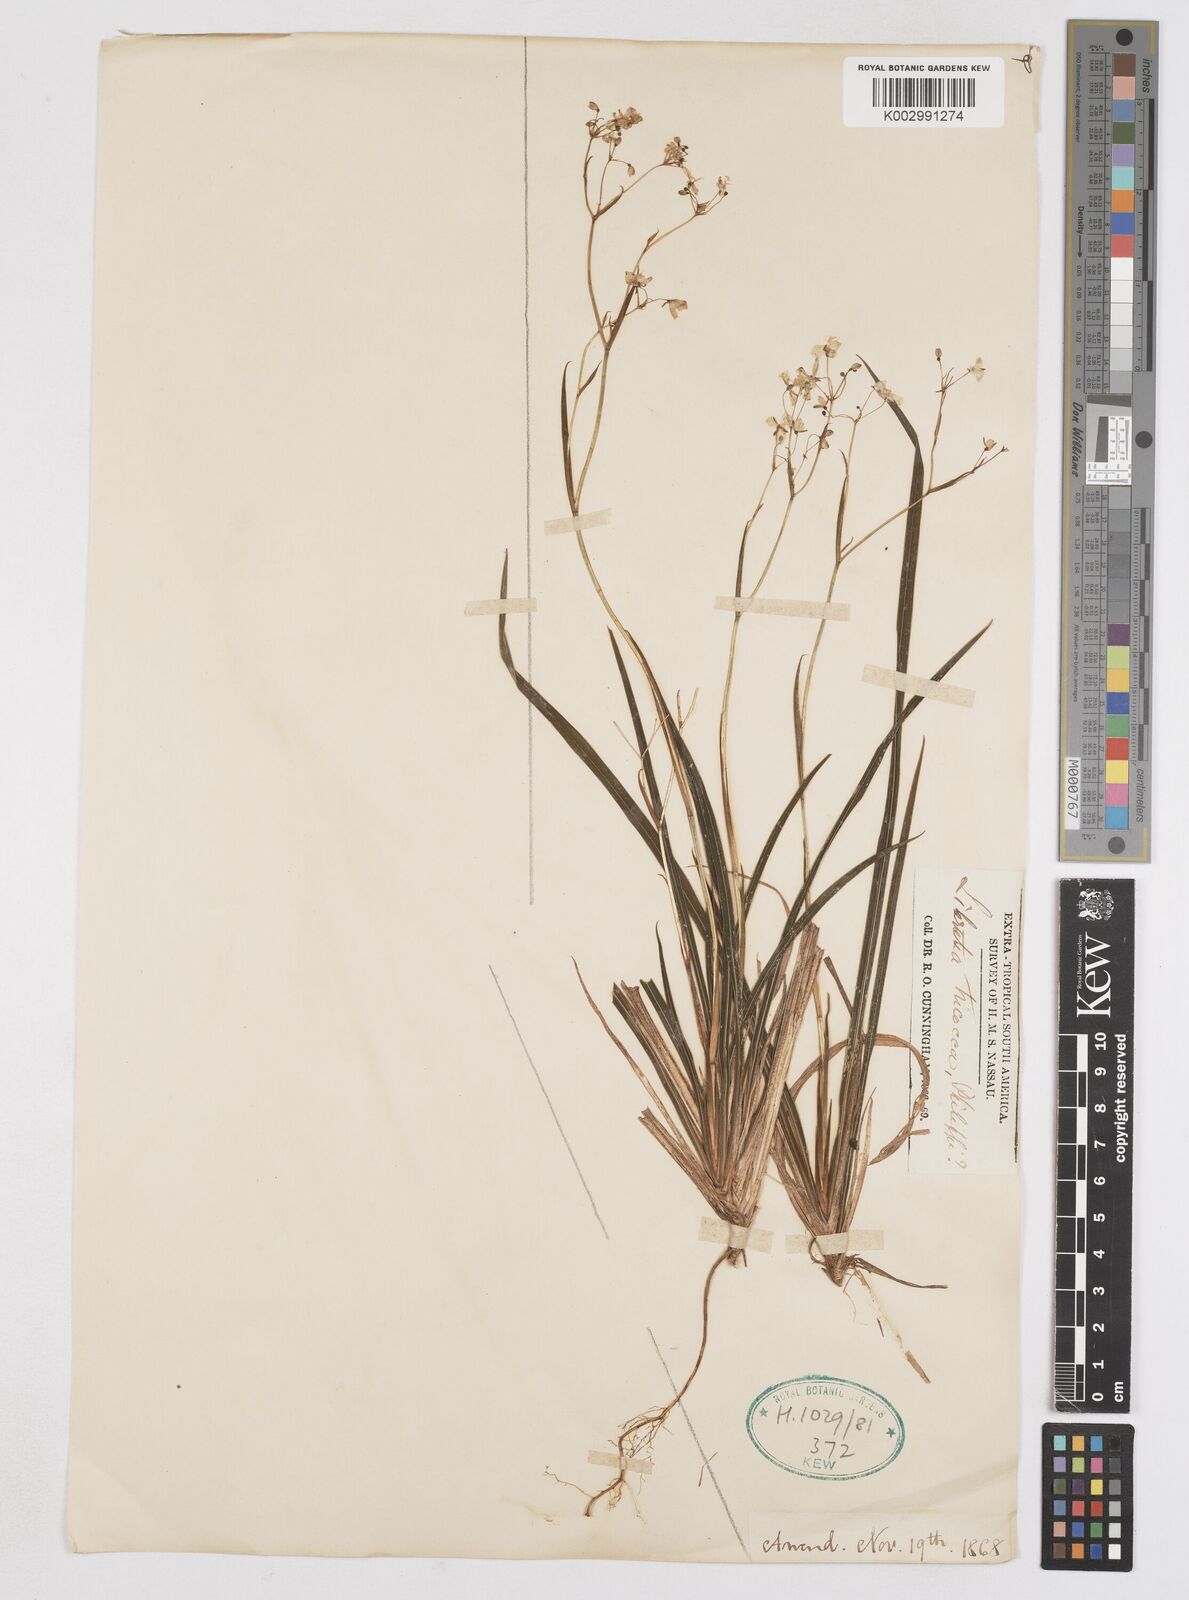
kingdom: Plantae
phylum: Tracheophyta
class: Liliopsida
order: Asparagales
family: Iridaceae
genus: Libertia
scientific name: Libertia tricocca
